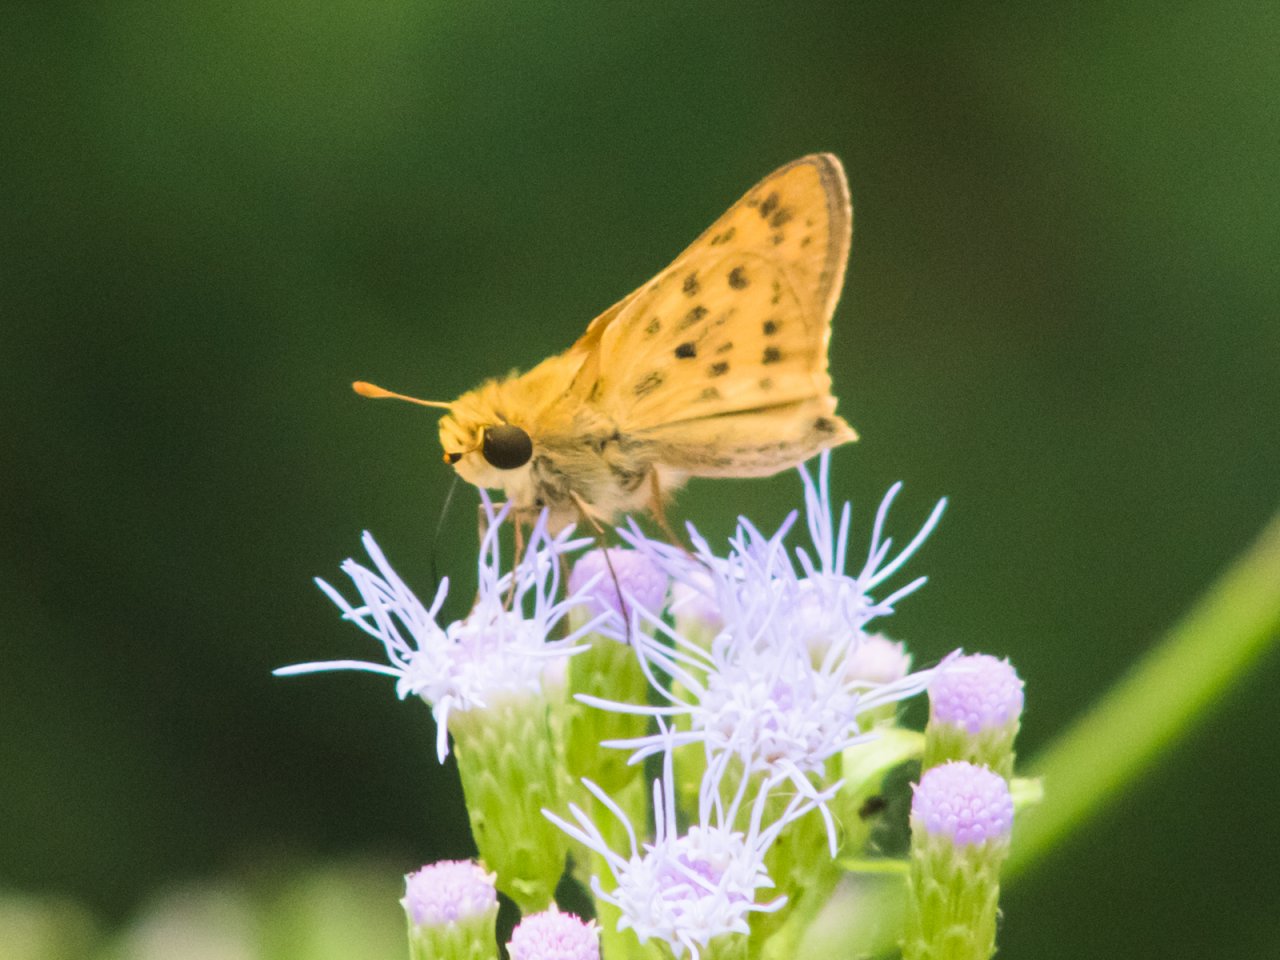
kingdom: Animalia
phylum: Arthropoda
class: Insecta
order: Lepidoptera
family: Hesperiidae
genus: Hylephila
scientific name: Hylephila phyleus
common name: Fiery Skipper
